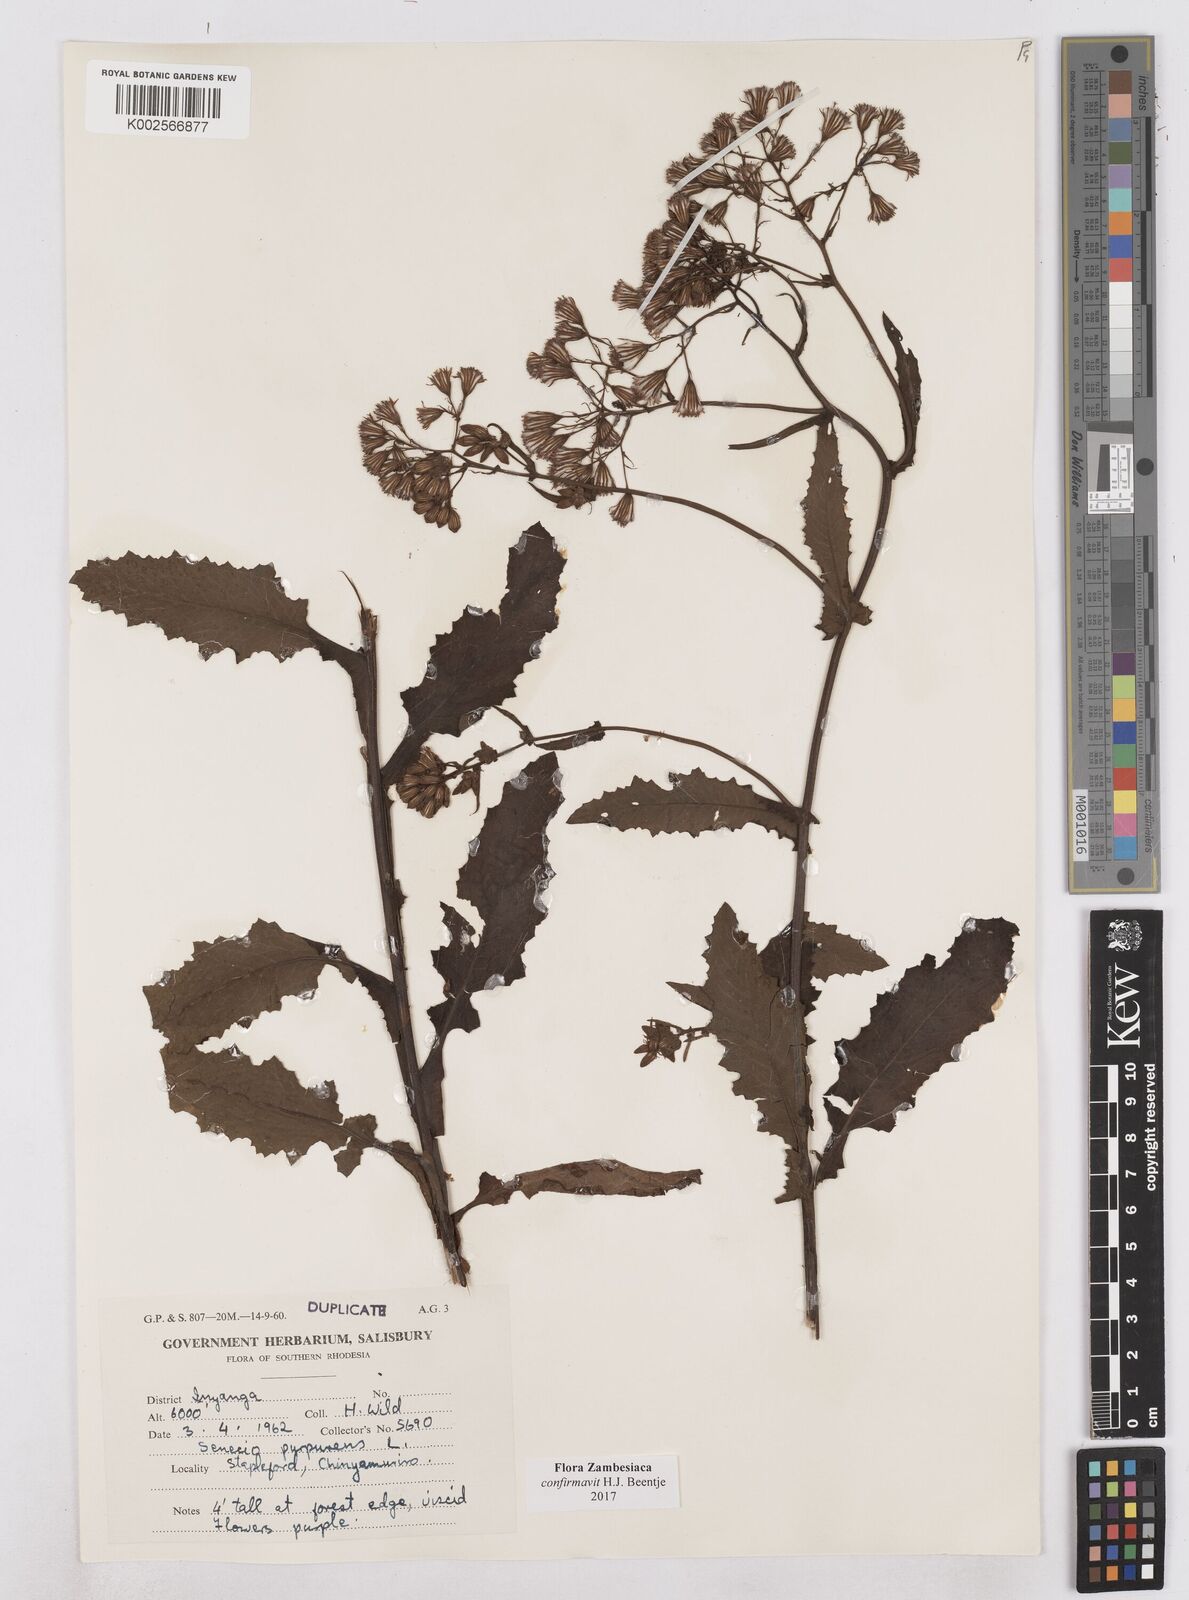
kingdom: Plantae
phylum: Tracheophyta
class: Magnoliopsida
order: Asterales
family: Asteraceae
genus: Senecio
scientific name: Senecio purpureus
